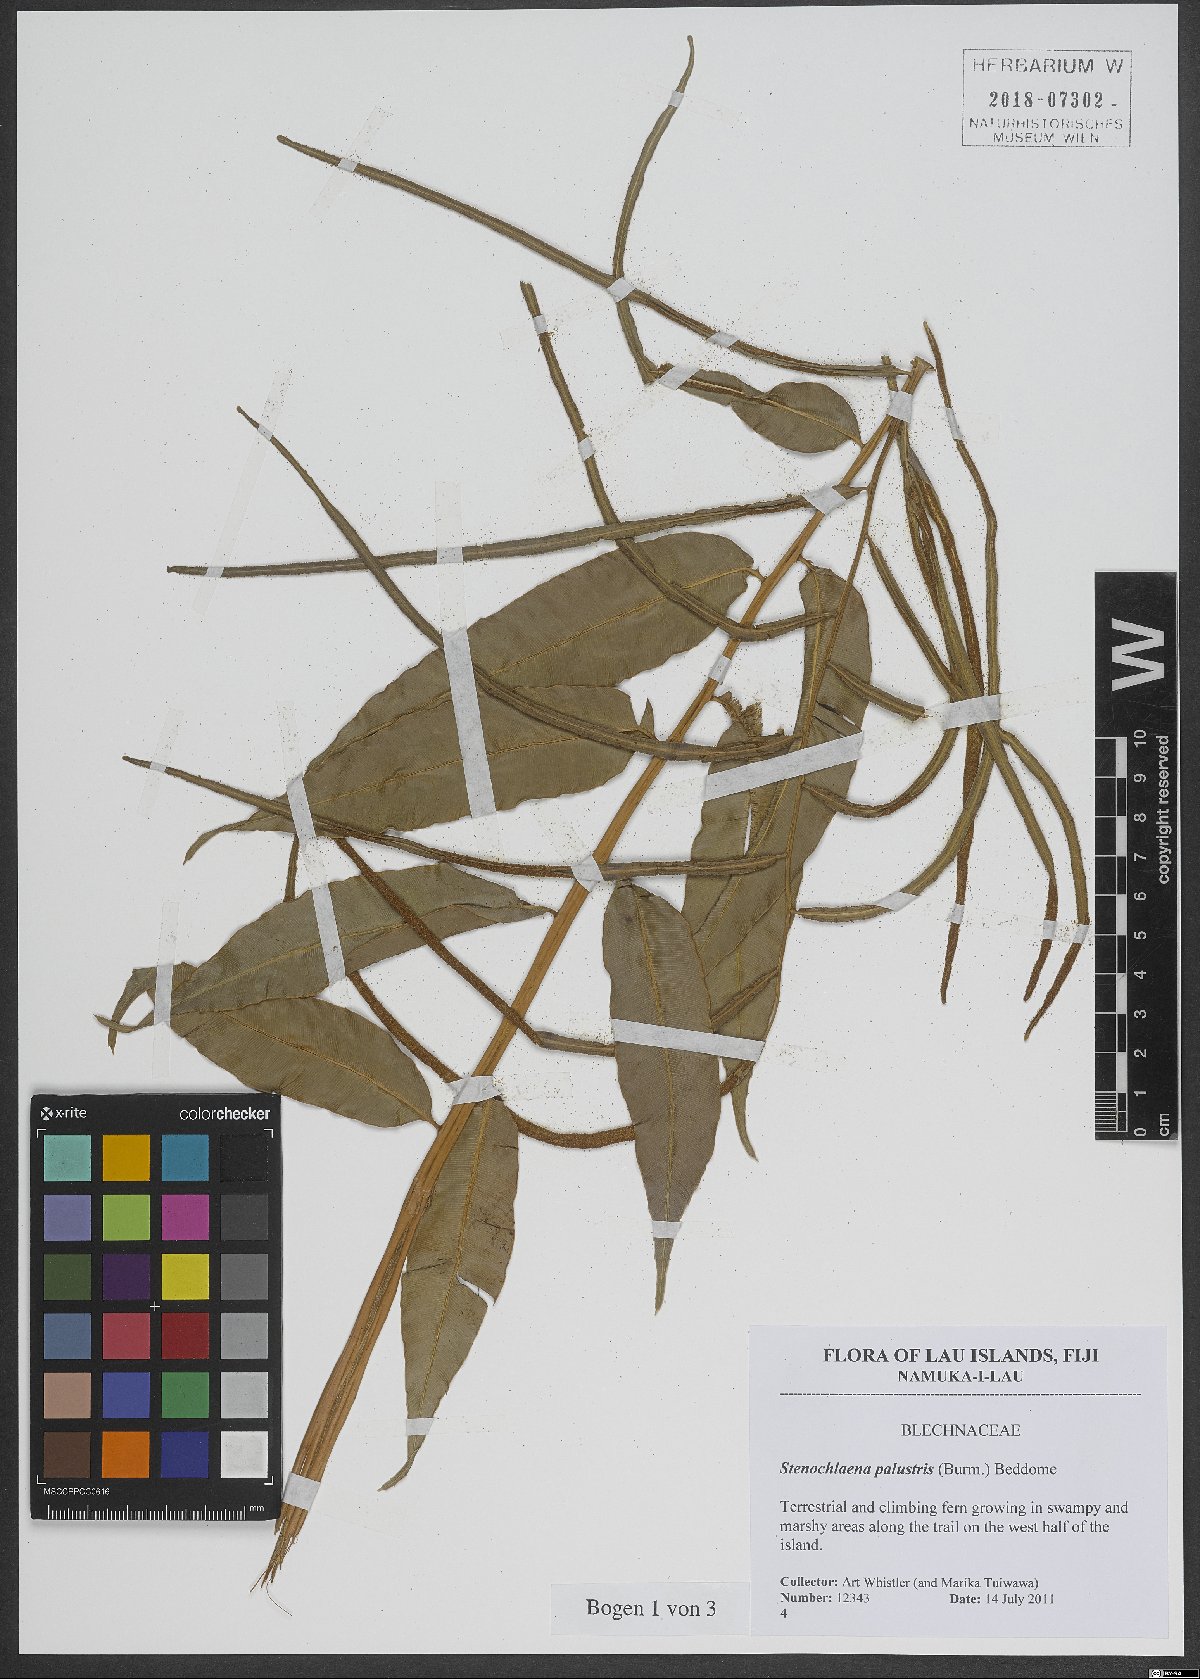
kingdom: Plantae
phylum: Tracheophyta
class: Polypodiopsida
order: Polypodiales
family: Blechnaceae
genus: Stenochlaena
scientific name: Stenochlaena palustris
